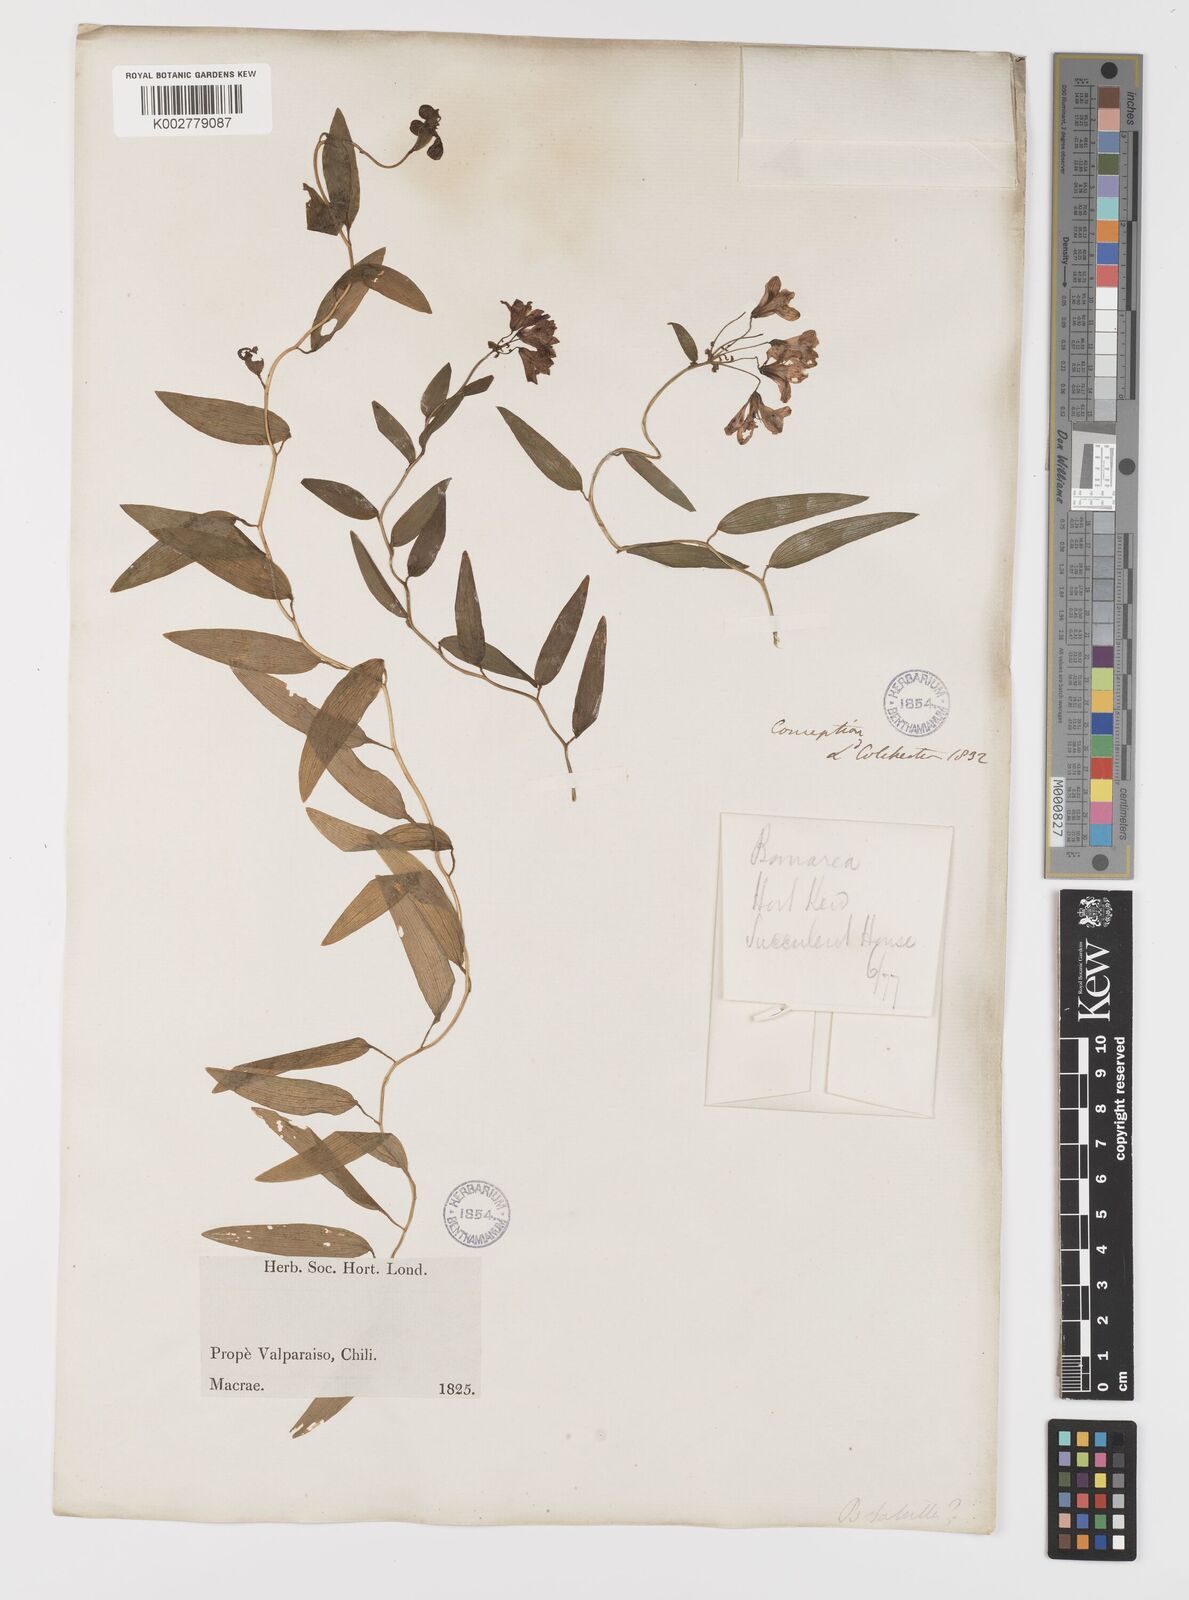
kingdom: Plantae
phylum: Tracheophyta
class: Liliopsida
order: Liliales
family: Alstroemeriaceae
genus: Bomarea
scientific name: Bomarea edulis
